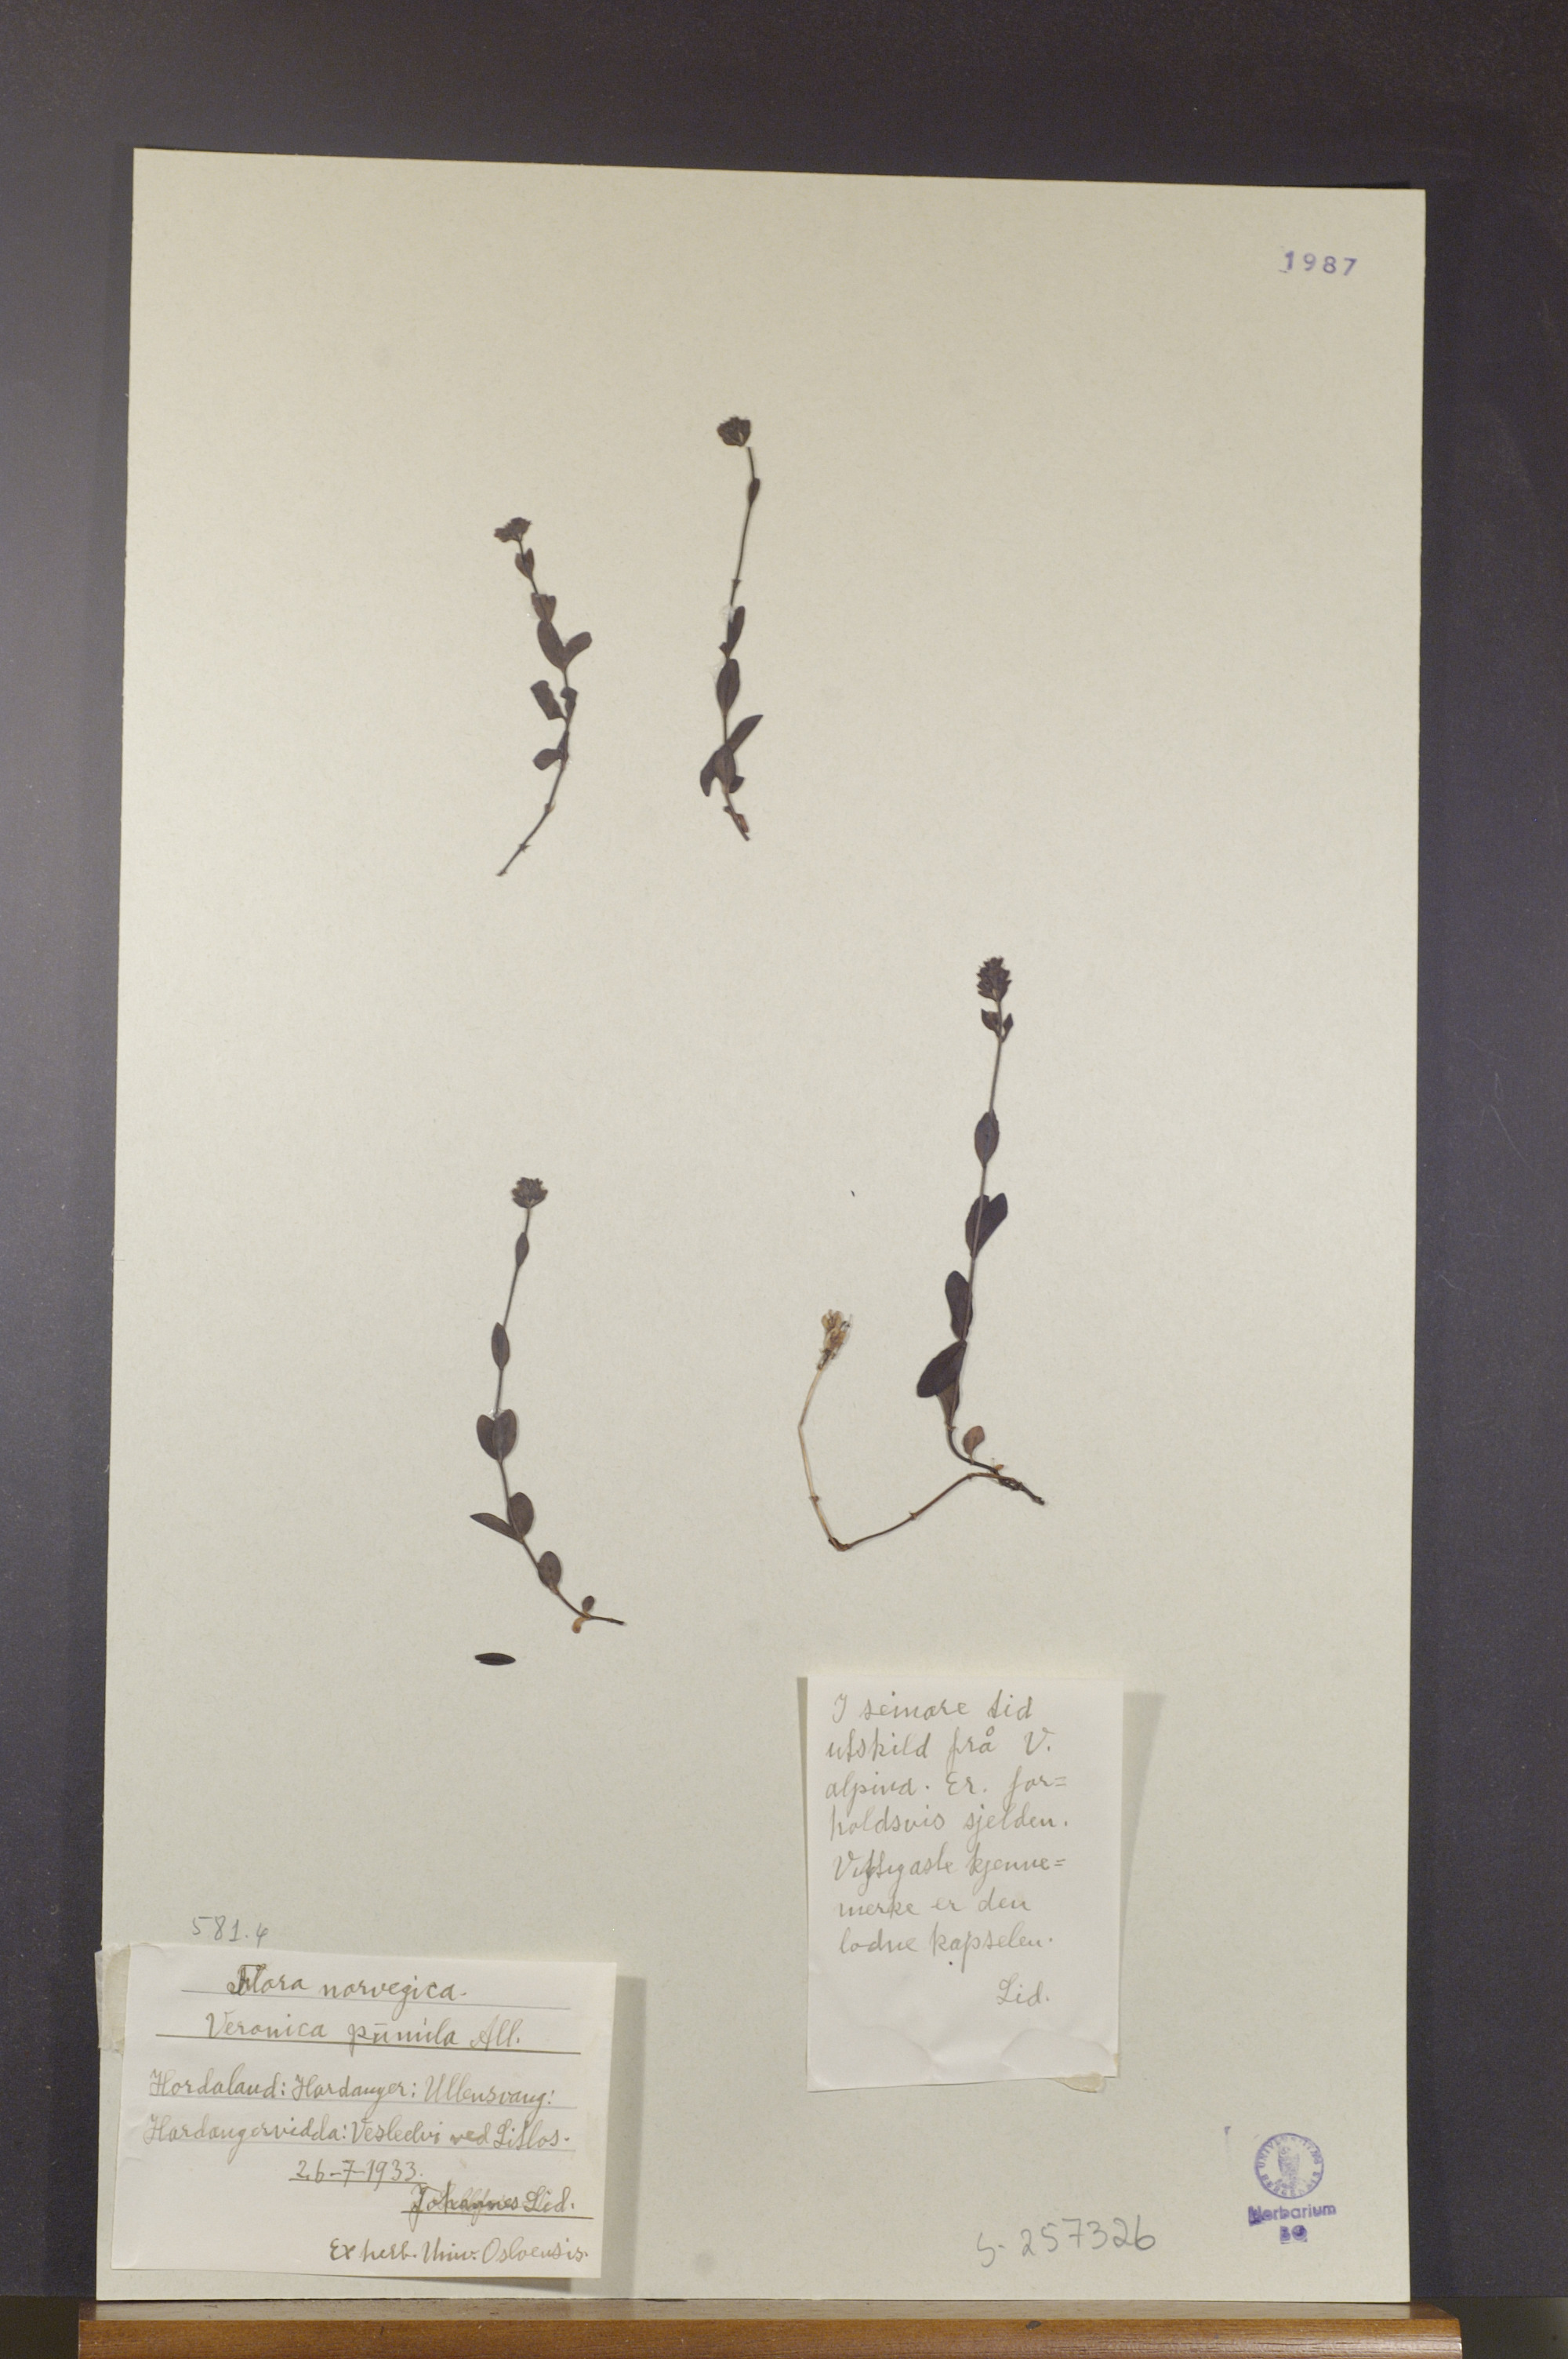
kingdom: Plantae
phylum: Tracheophyta
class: Magnoliopsida
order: Lamiales
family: Plantaginaceae
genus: Veronica
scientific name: Veronica alpina
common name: Alpine speedwell
